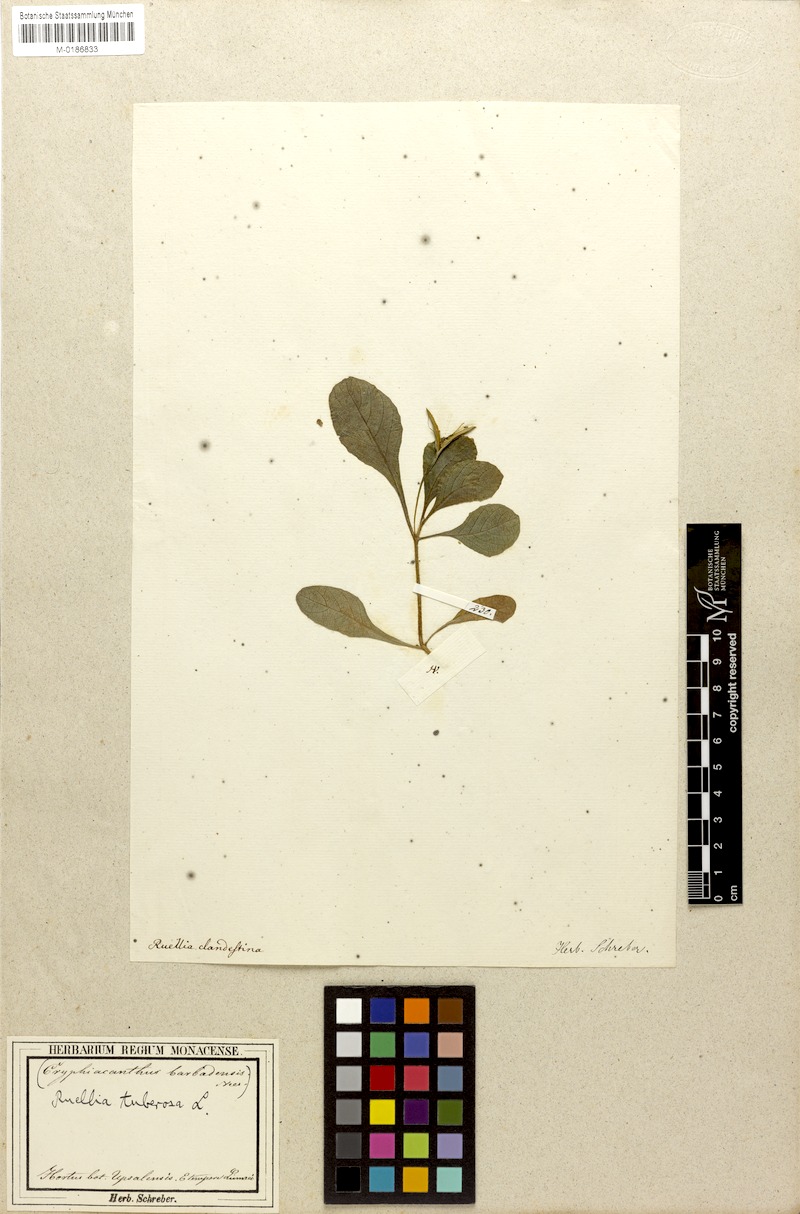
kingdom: Plantae
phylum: Tracheophyta
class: Magnoliopsida
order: Lamiales
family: Acanthaceae
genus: Ruellia
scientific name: Ruellia tuberosa
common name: Devil's bit
